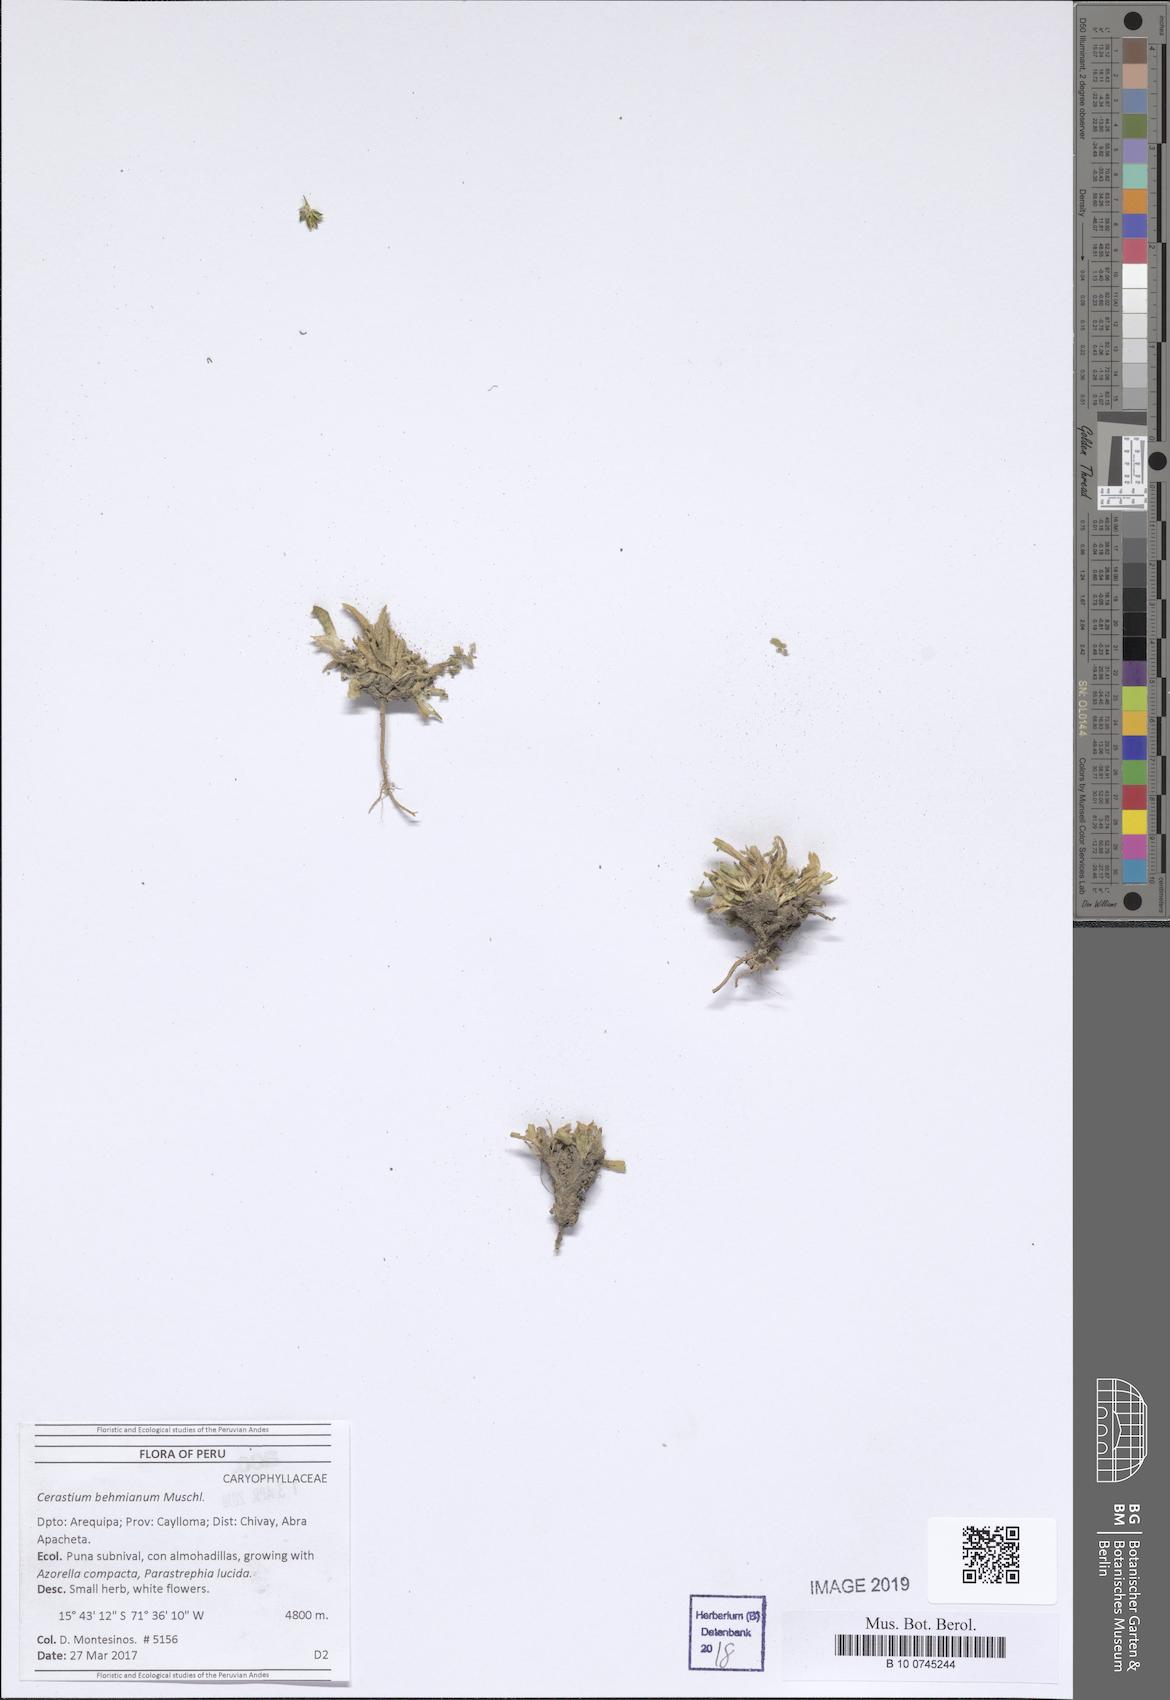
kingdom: Plantae
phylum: Tracheophyta
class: Magnoliopsida
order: Caryophyllales
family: Caryophyllaceae
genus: Cerastium
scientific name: Cerastium behmianum
